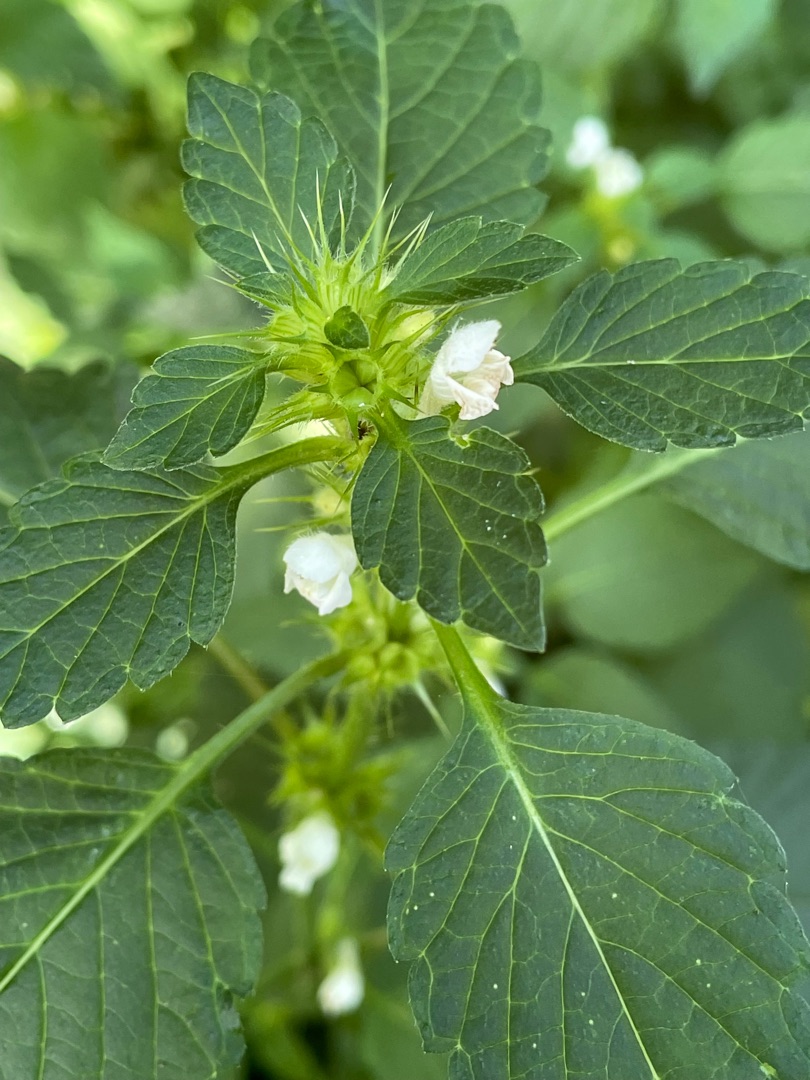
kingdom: Plantae
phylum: Tracheophyta
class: Magnoliopsida
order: Lamiales
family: Lamiaceae
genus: Galeopsis
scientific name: Galeopsis tetrahit
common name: Almindelig hanekro
